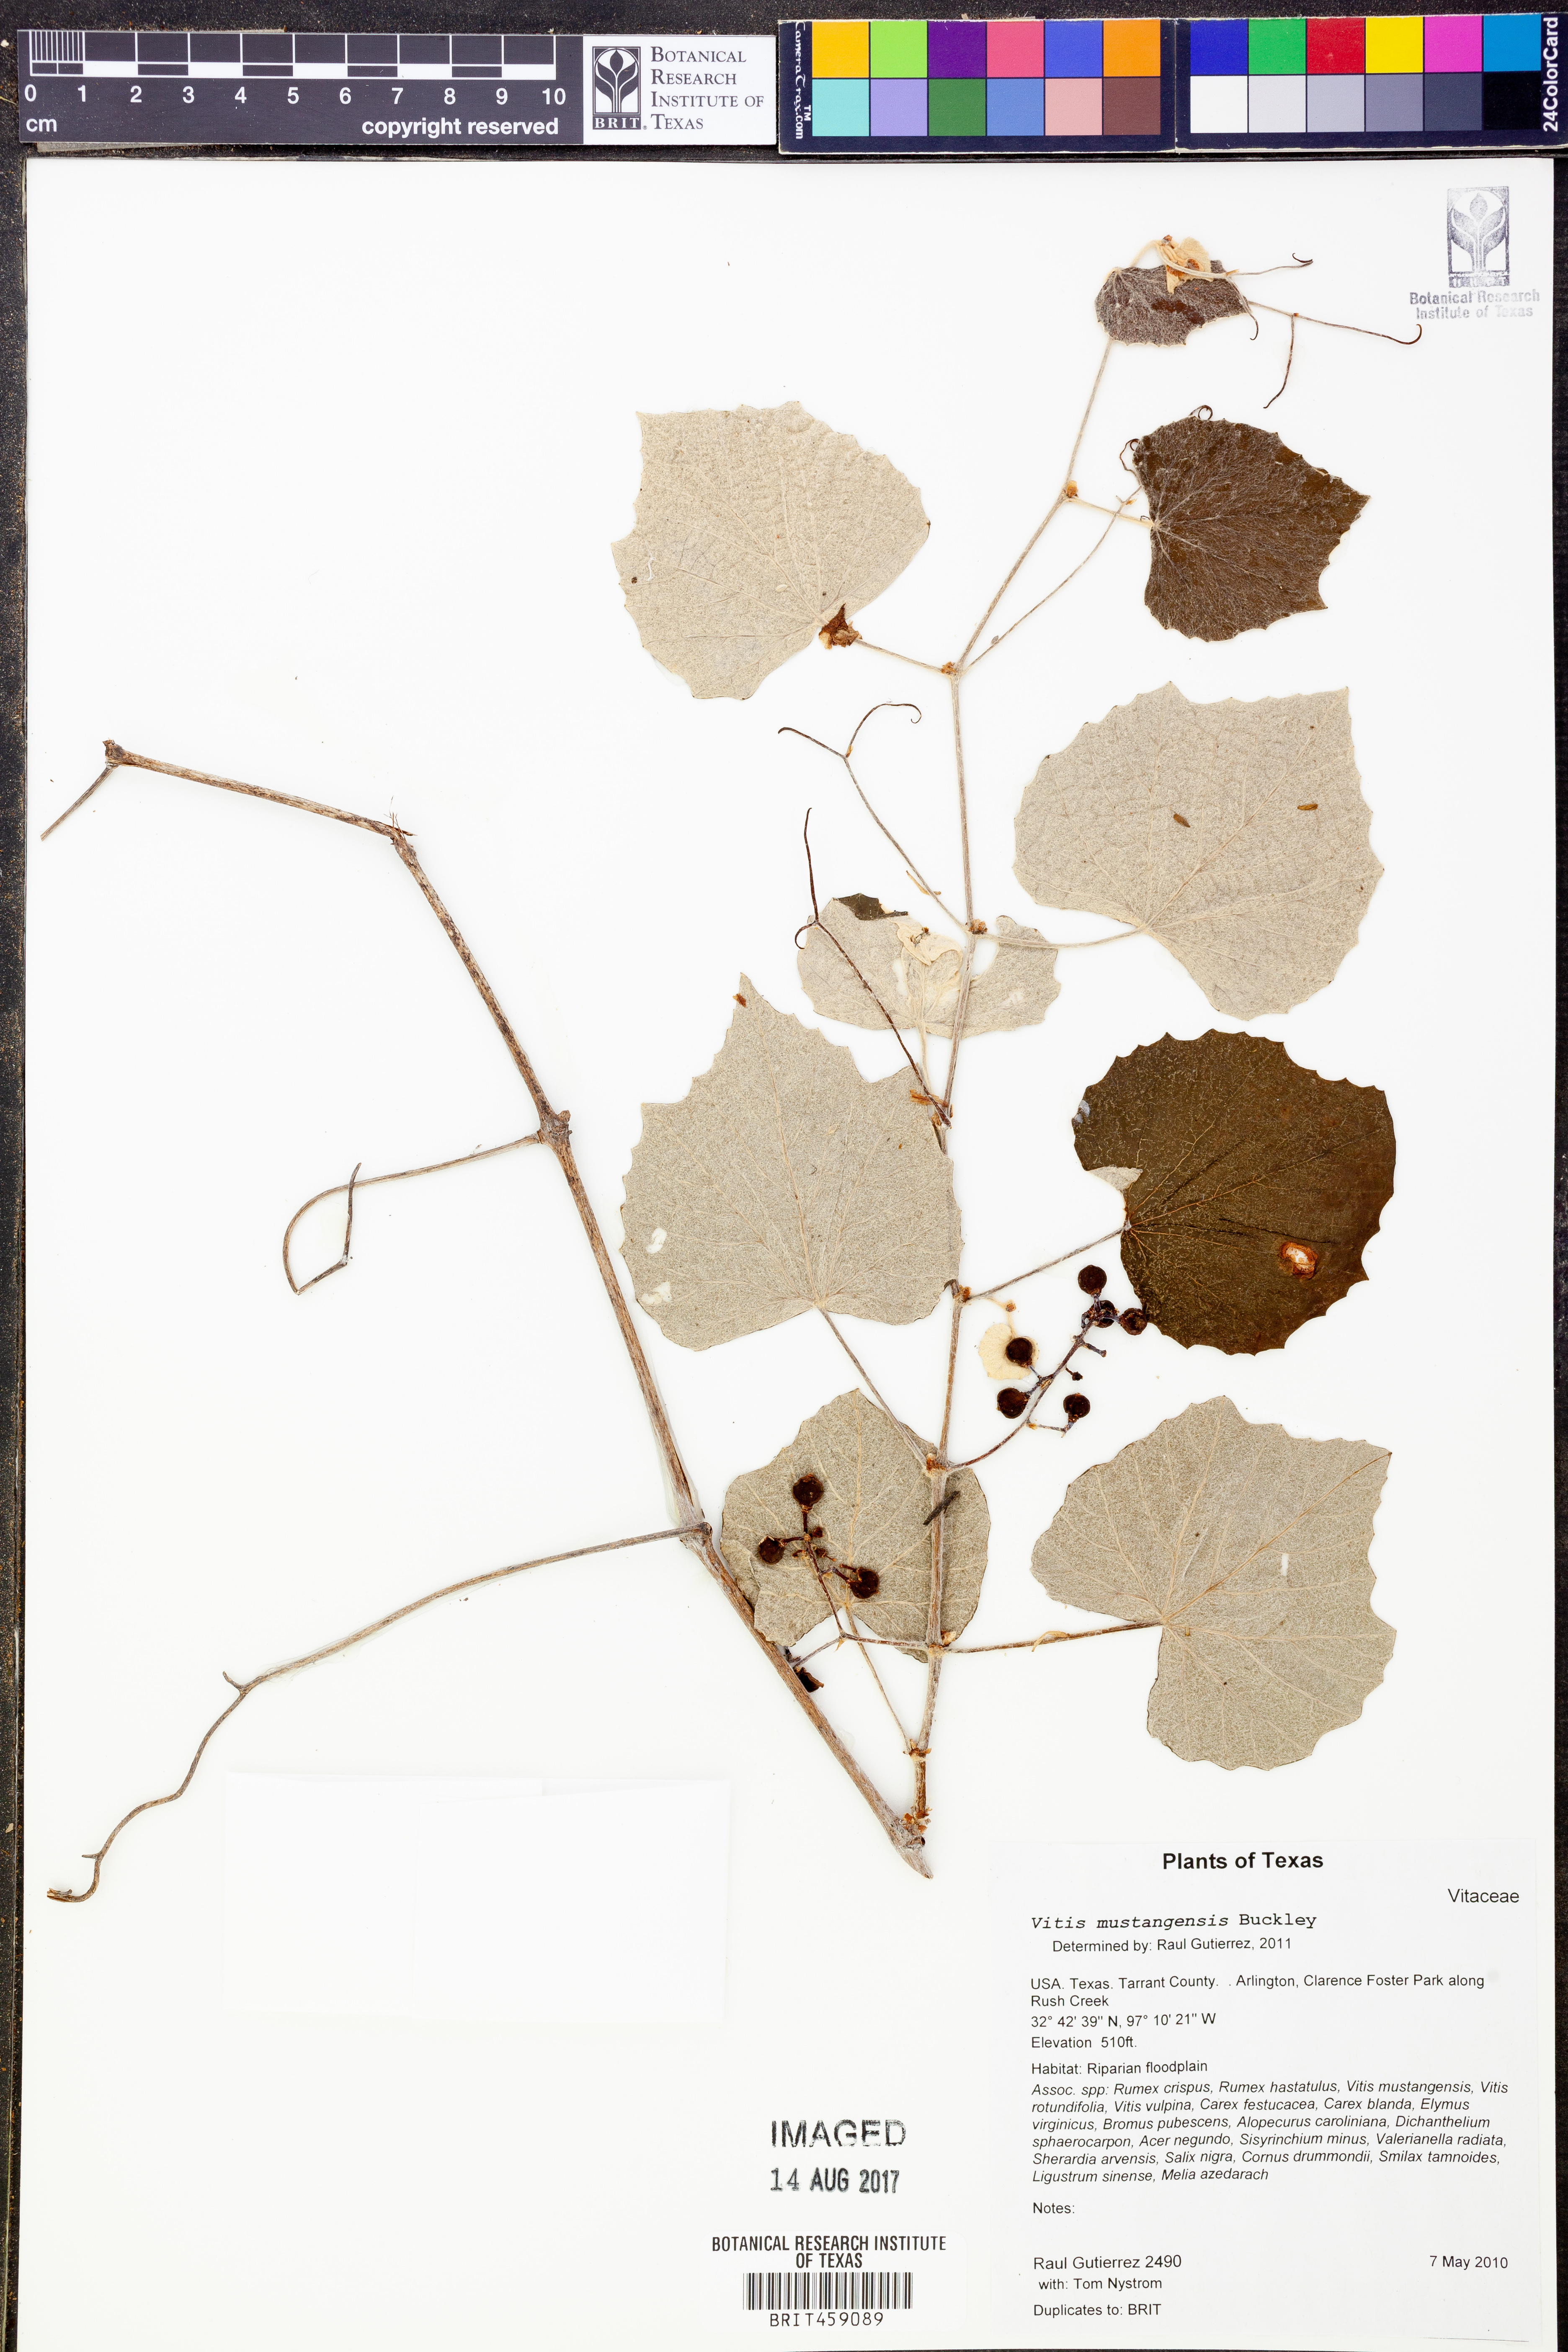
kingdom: Plantae
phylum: Tracheophyta
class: Magnoliopsida
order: Vitales
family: Vitaceae
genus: Vitis
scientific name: Vitis mustangensis
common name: Mustang grape
